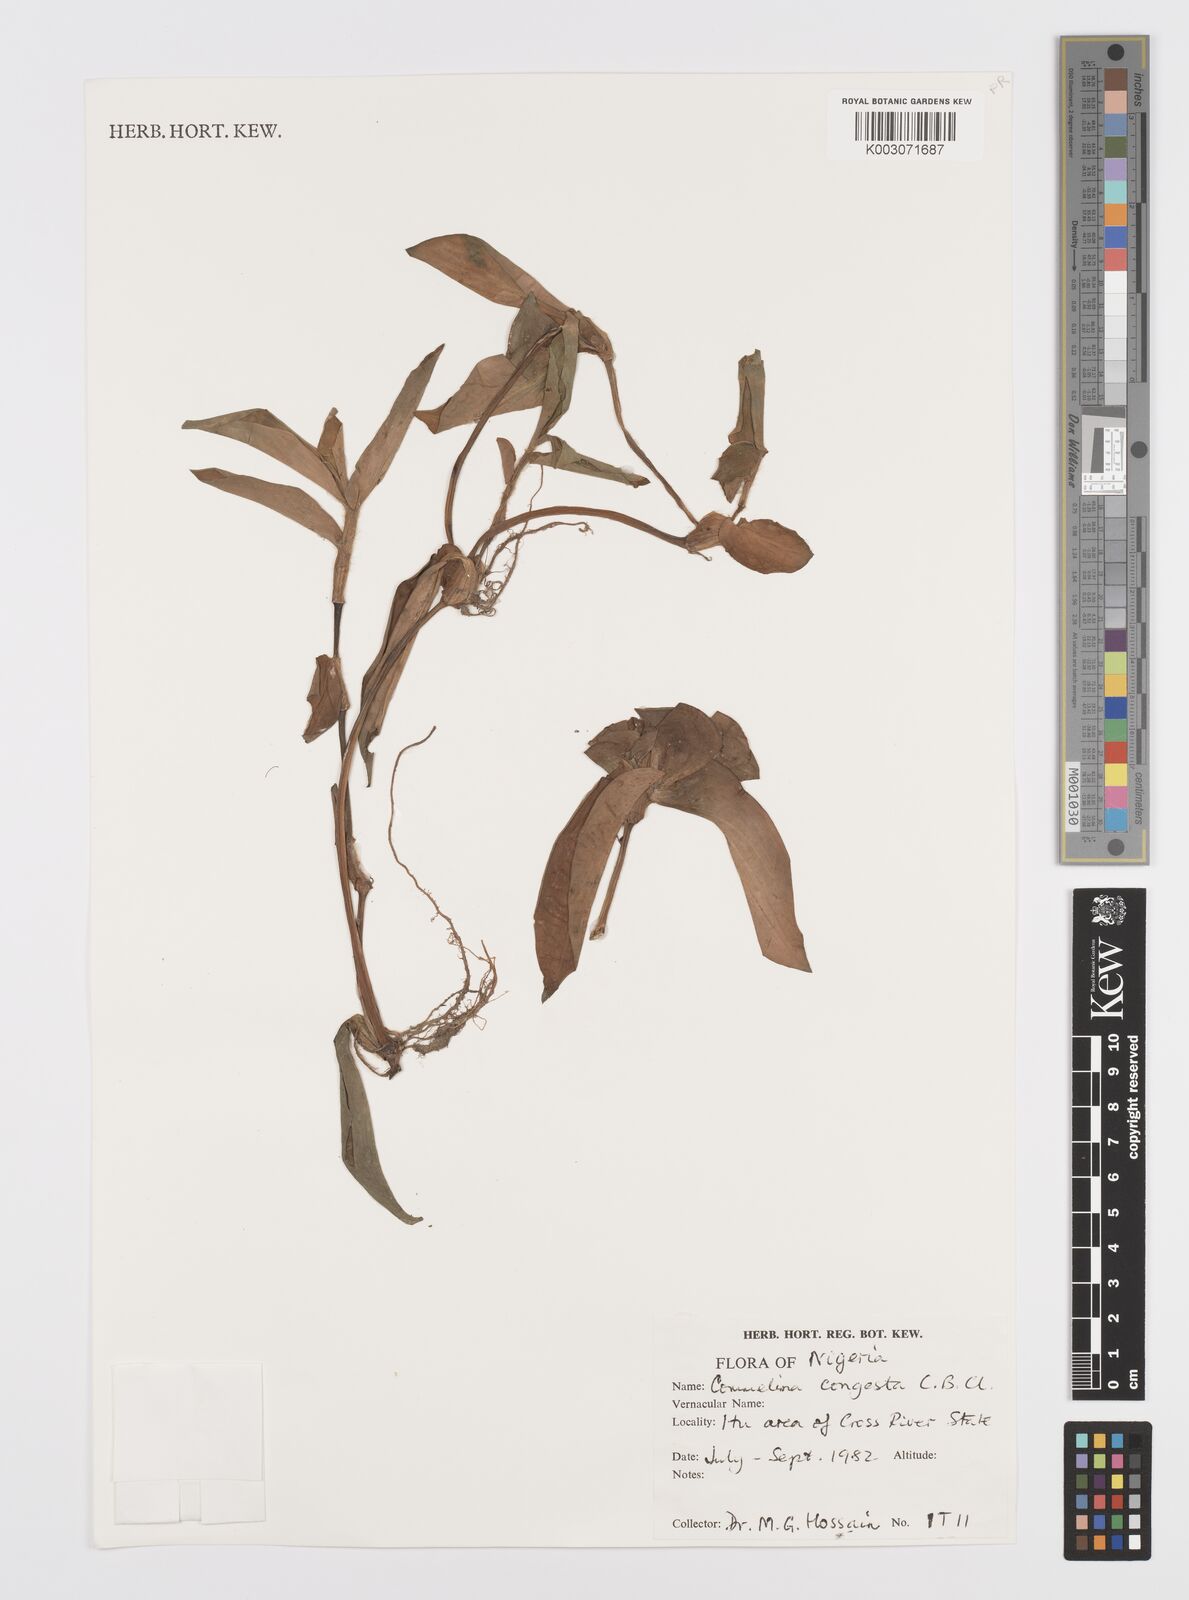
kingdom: Plantae
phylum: Tracheophyta
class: Liliopsida
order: Commelinales
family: Commelinaceae
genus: Commelina
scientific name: Commelina congesta
